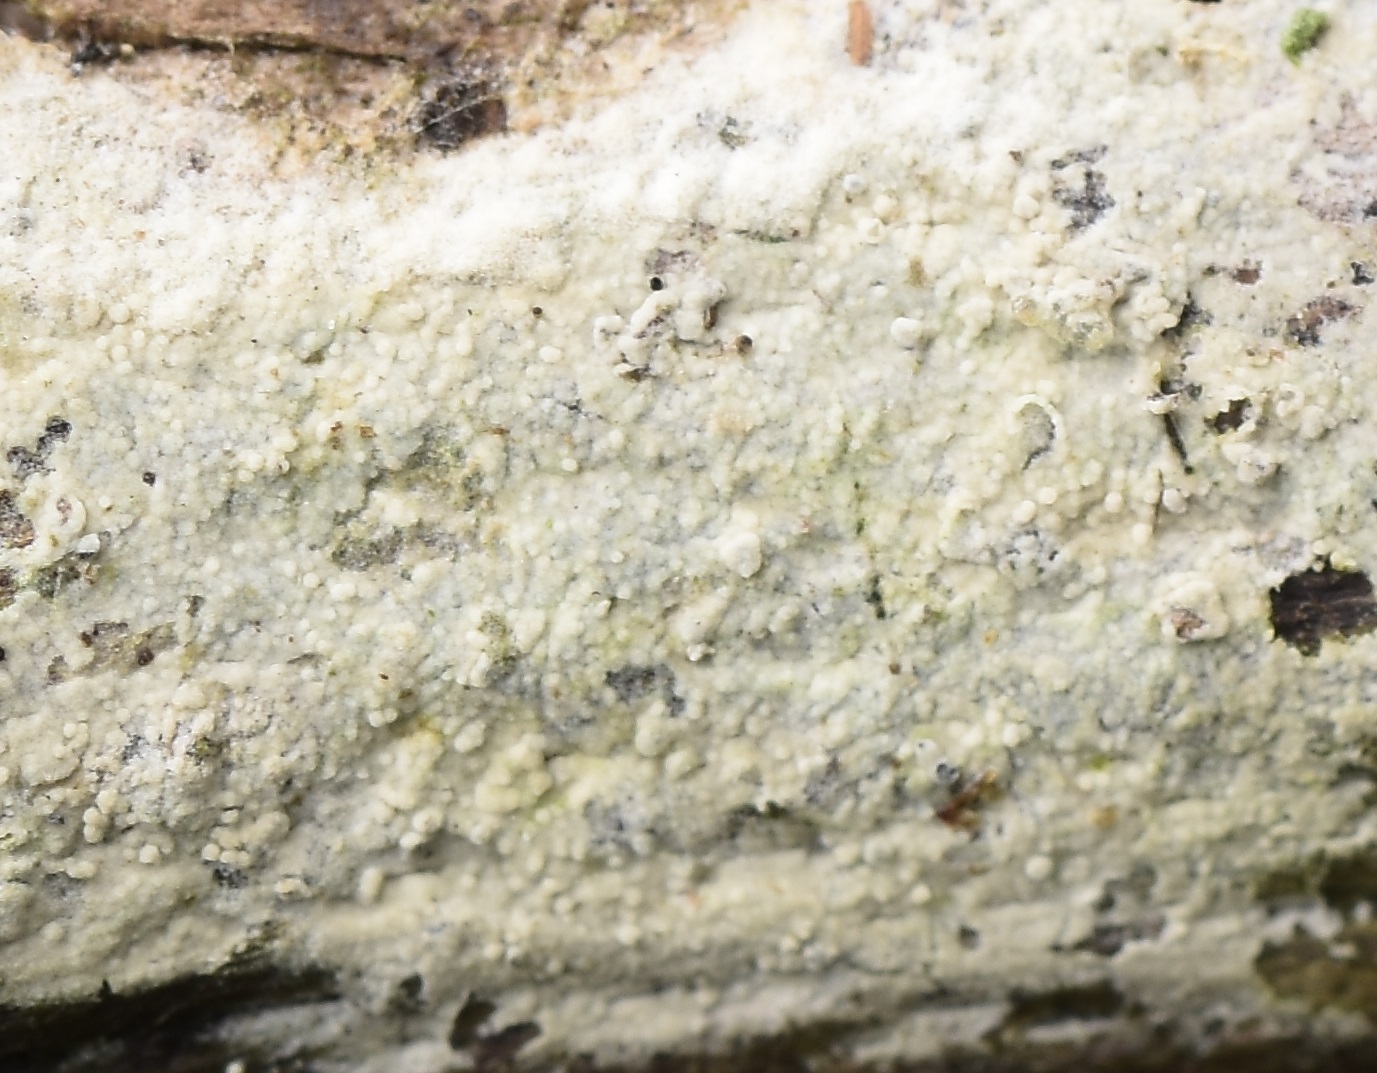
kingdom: Fungi
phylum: Basidiomycota
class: Agaricomycetes
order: Trechisporales
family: Hydnodontaceae
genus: Brevicellicium
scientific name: Brevicellicium olivascens
